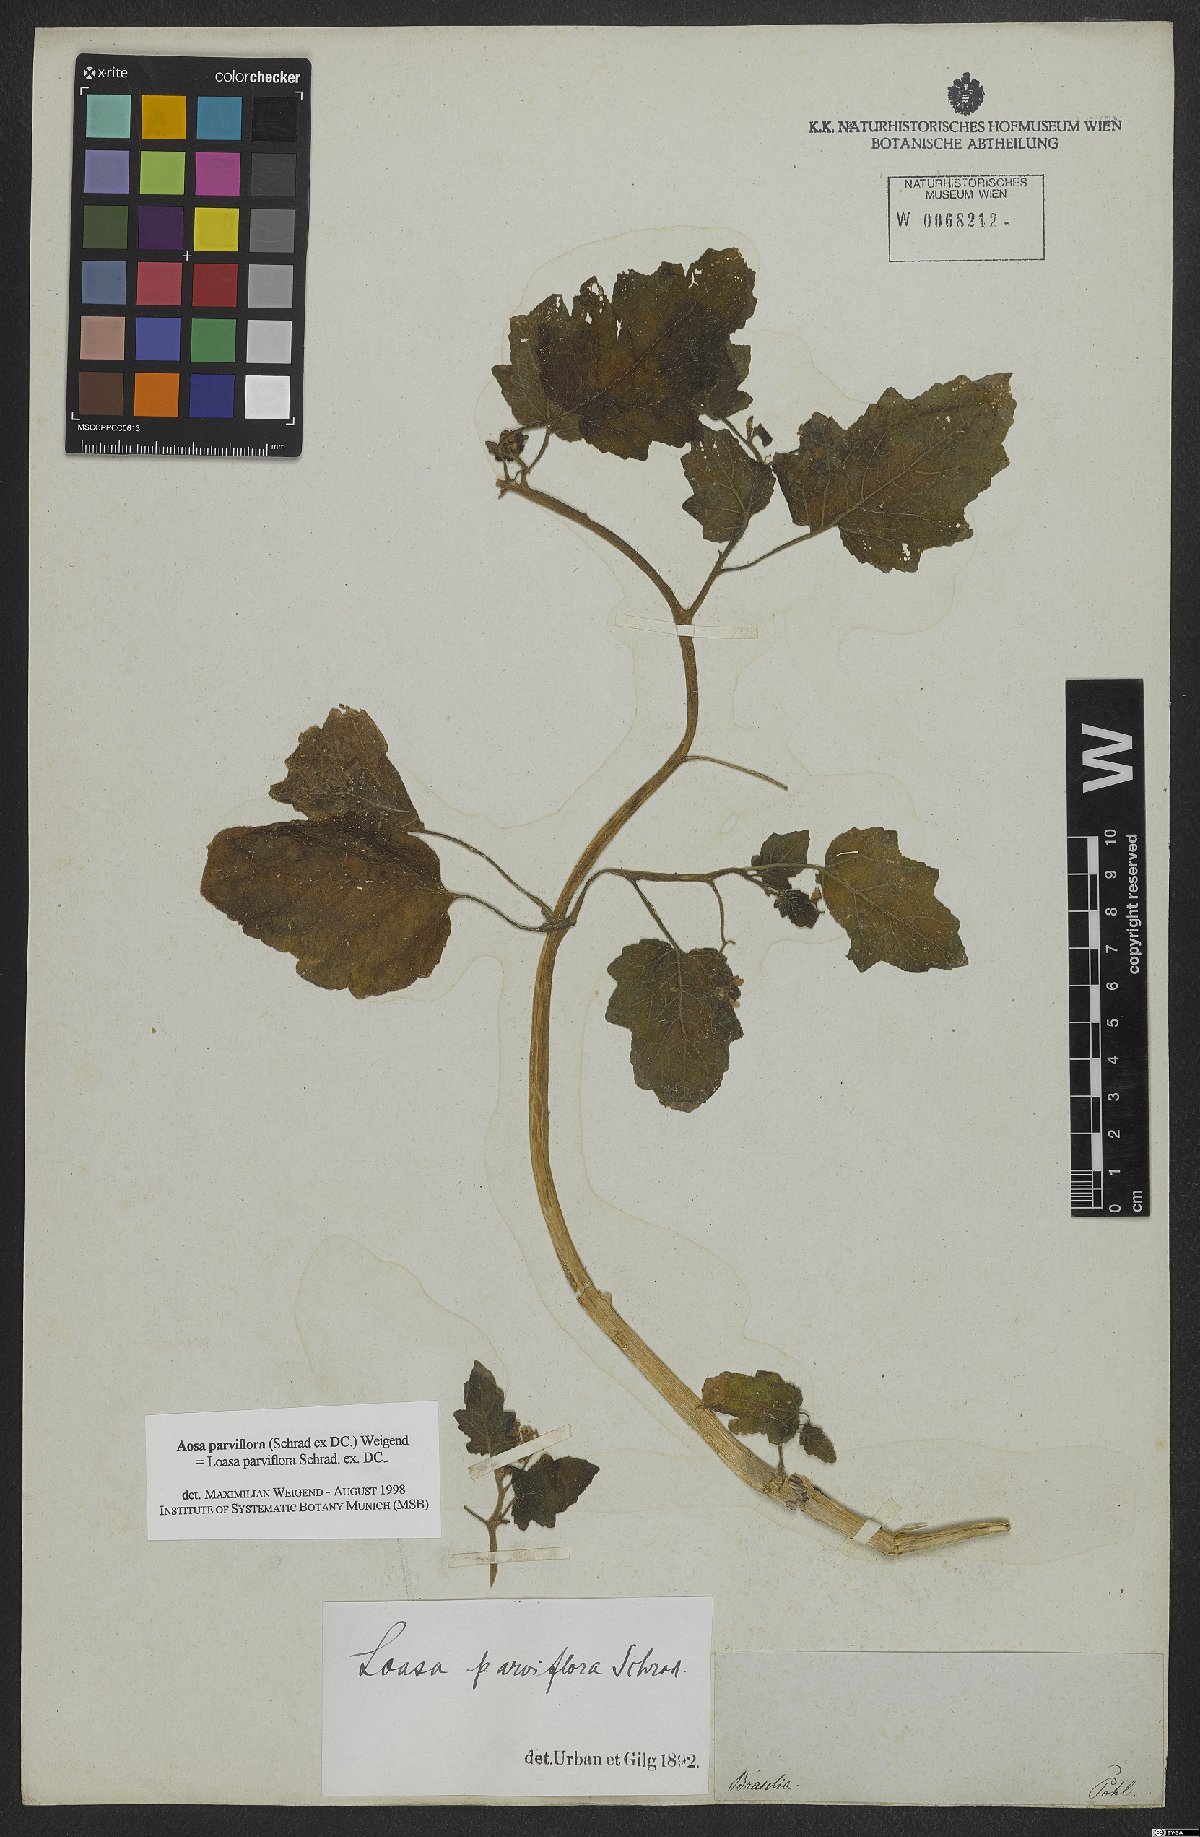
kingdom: Plantae
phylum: Tracheophyta
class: Magnoliopsida
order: Cornales
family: Loasaceae
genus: Aosa
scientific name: Aosa parviflora
